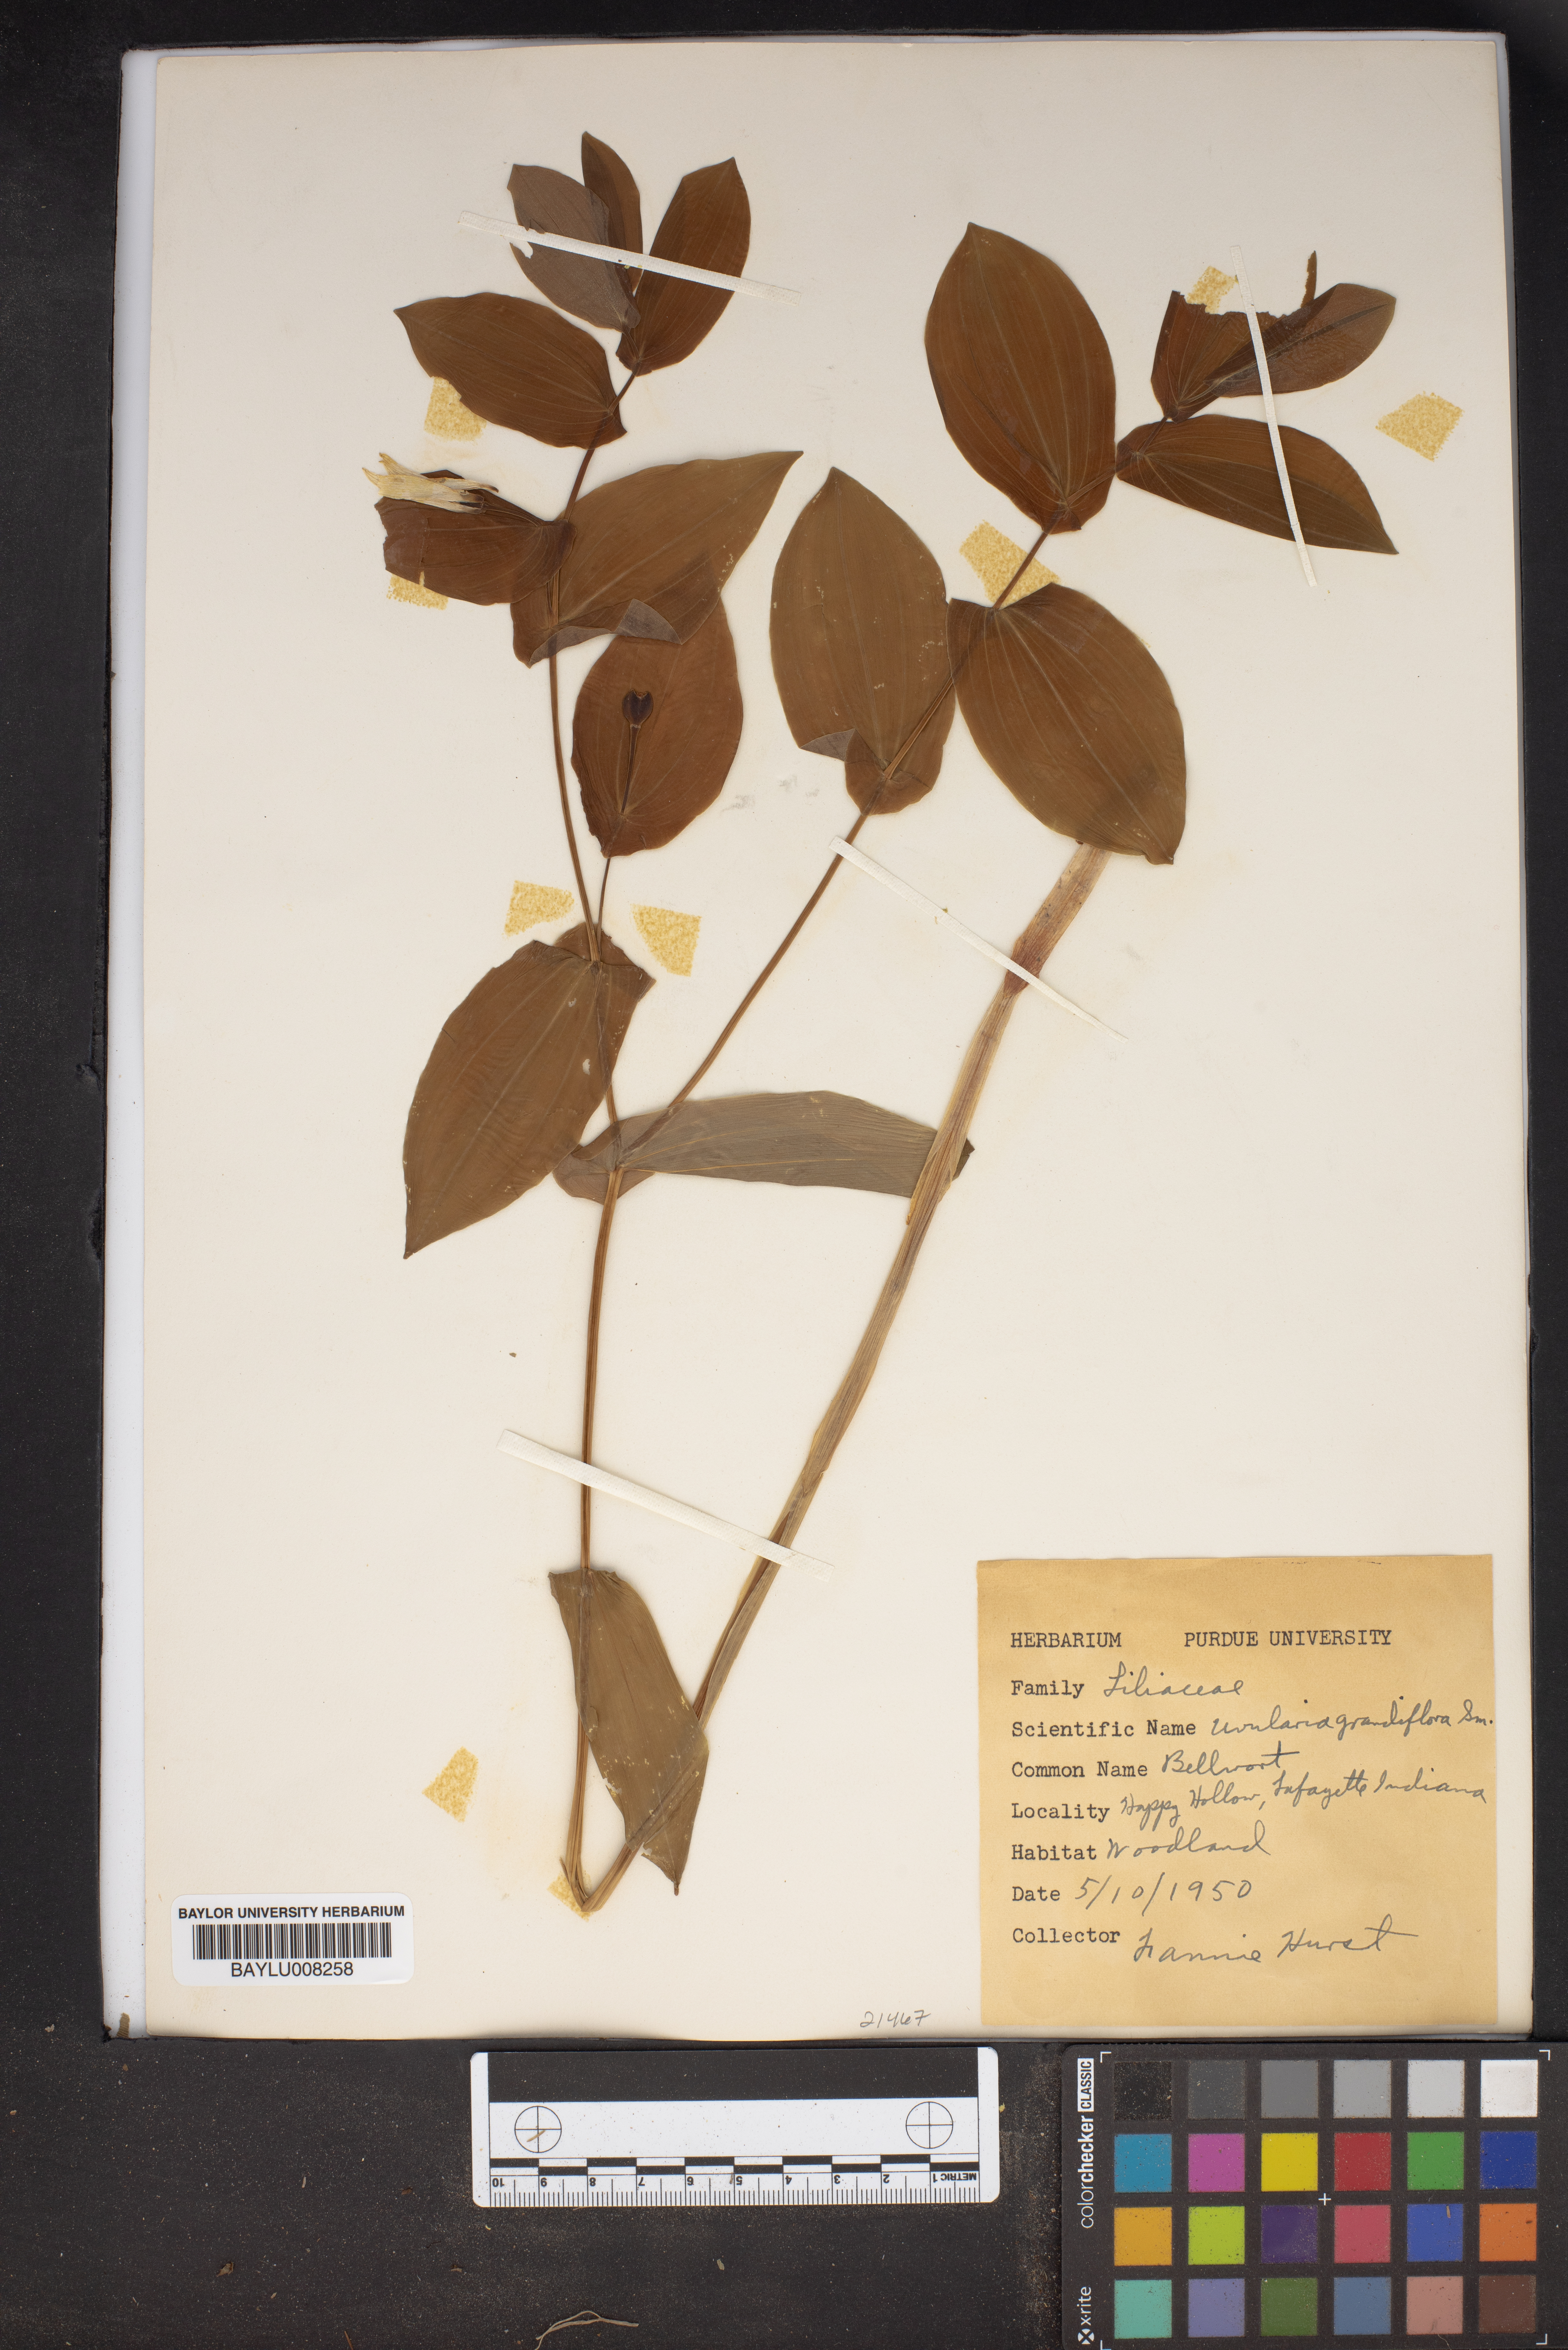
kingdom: Plantae
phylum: Tracheophyta
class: Liliopsida
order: Liliales
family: Colchicaceae
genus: Uvularia
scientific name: Uvularia grandiflora
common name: Bellwort
